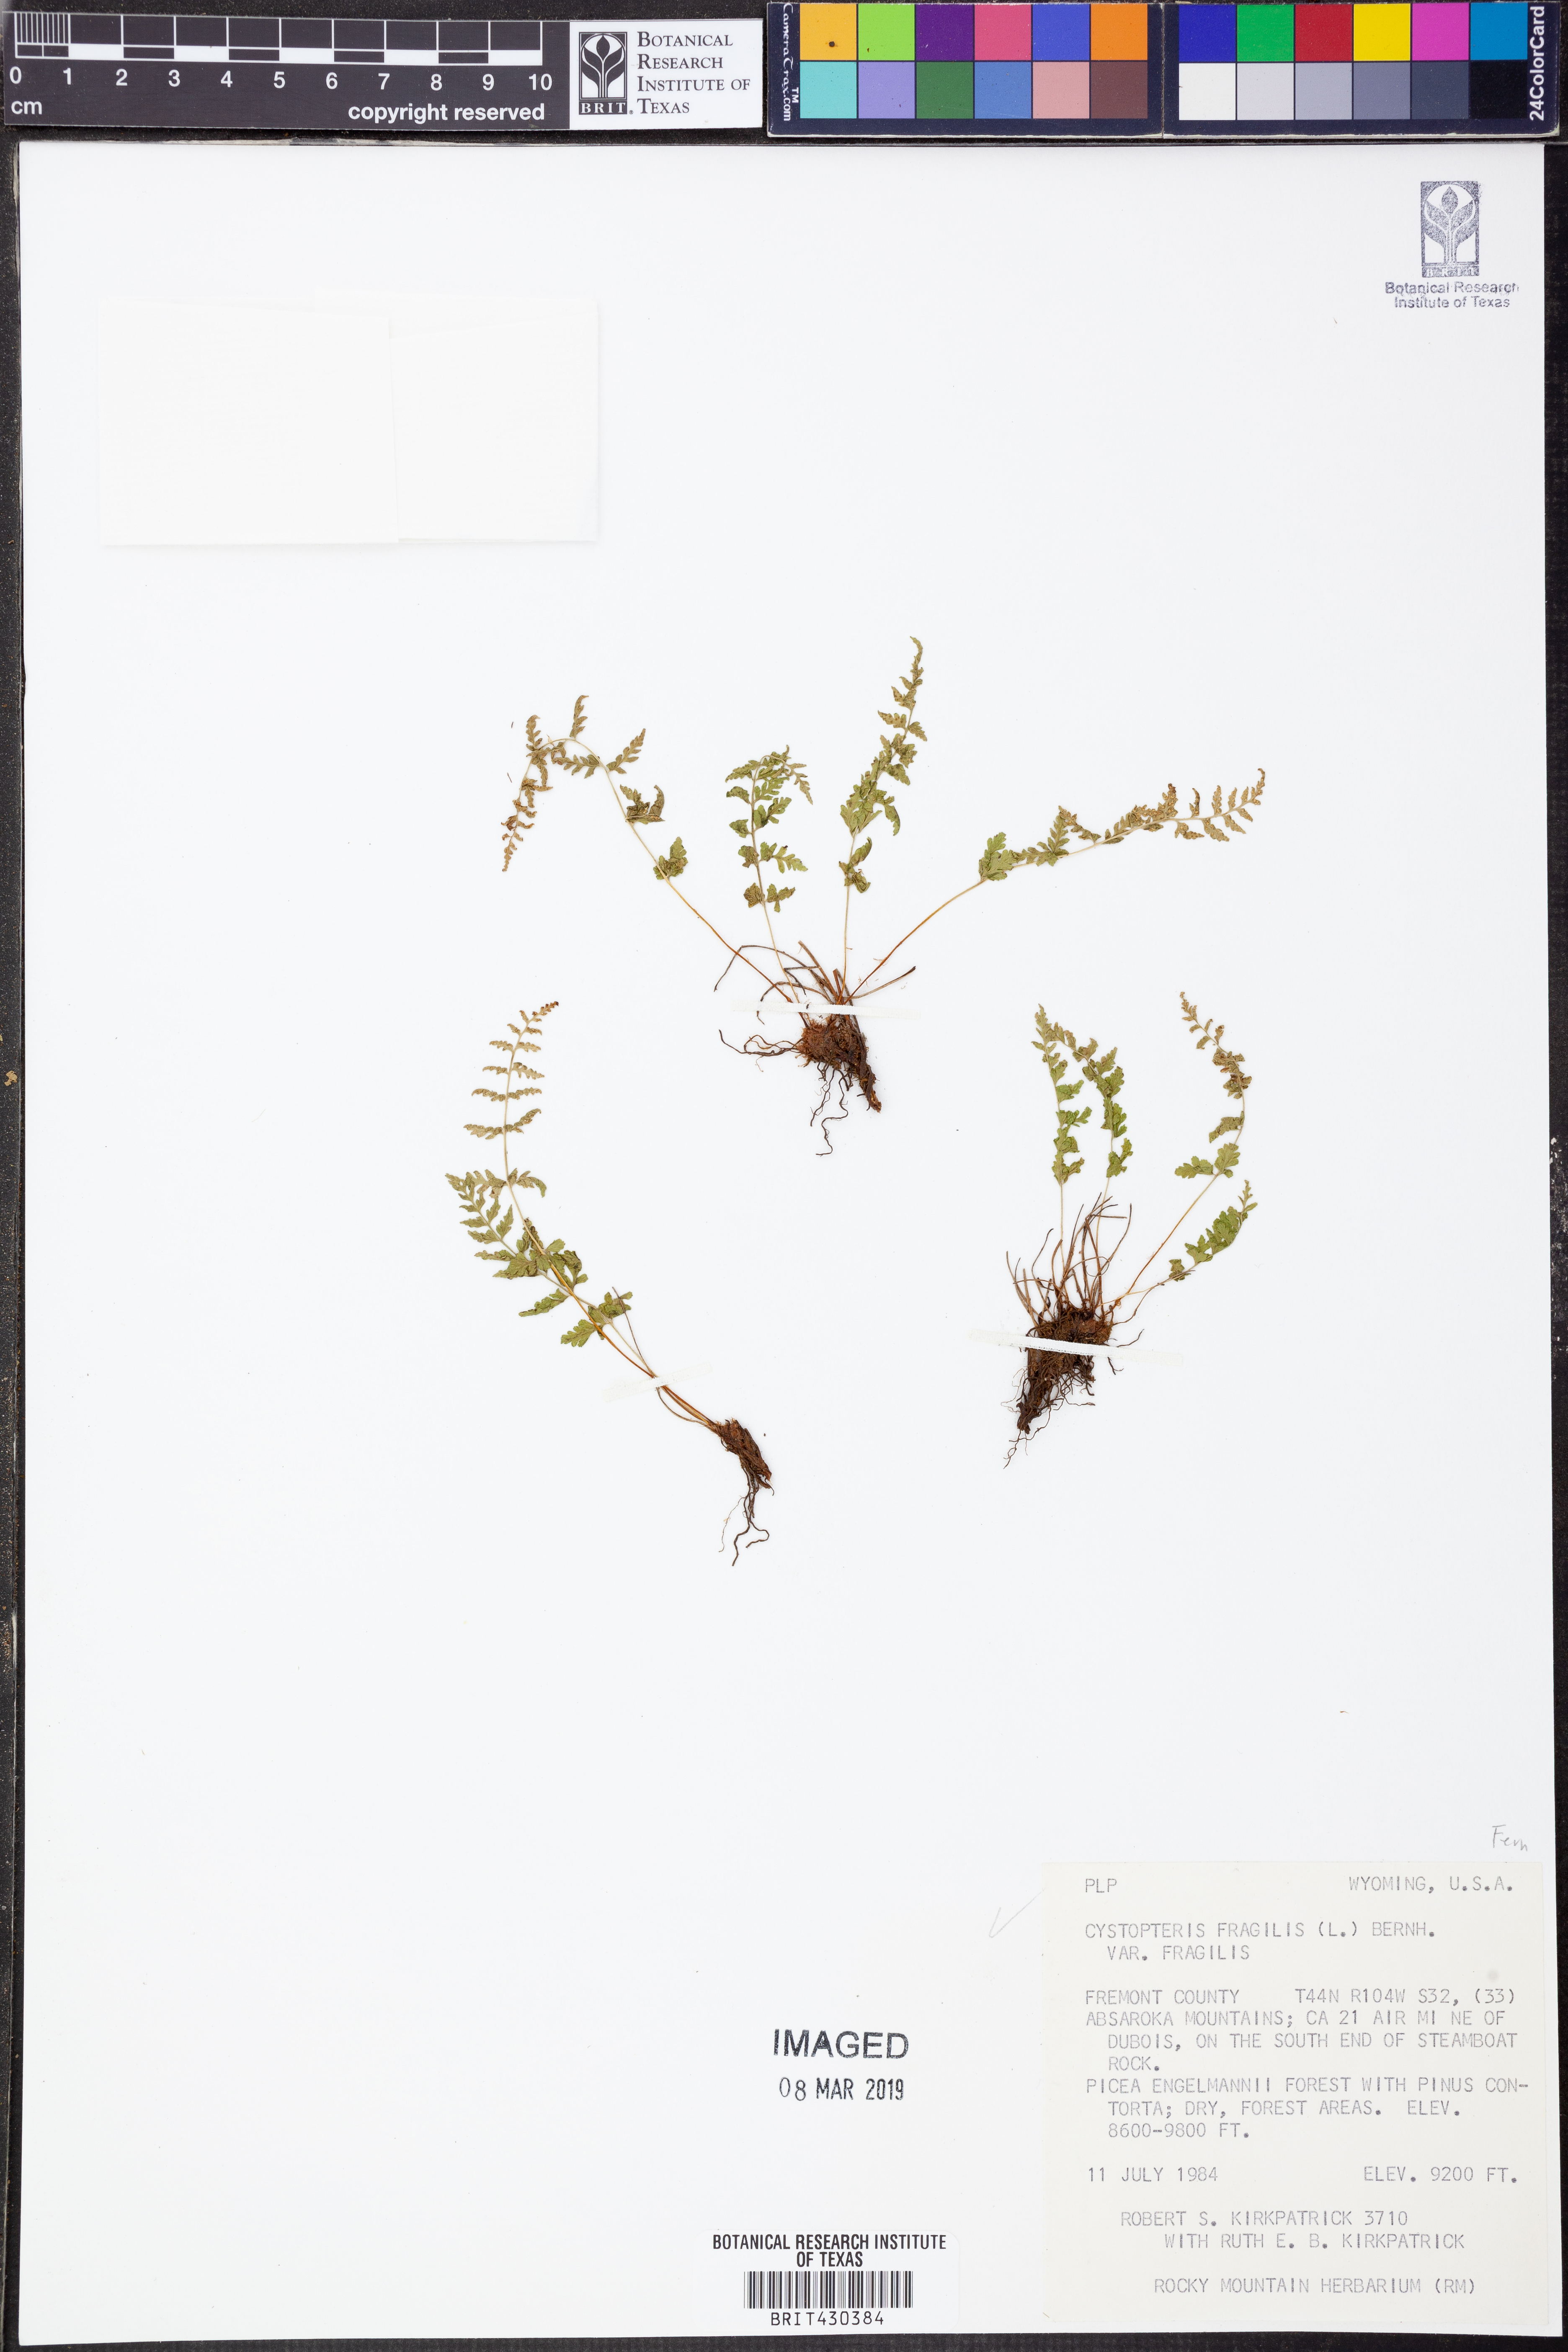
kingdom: Plantae
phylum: Tracheophyta
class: Polypodiopsida
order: Polypodiales
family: Cystopteridaceae
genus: Cystopteris
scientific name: Cystopteris fragilis
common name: Brittle bladder fern
